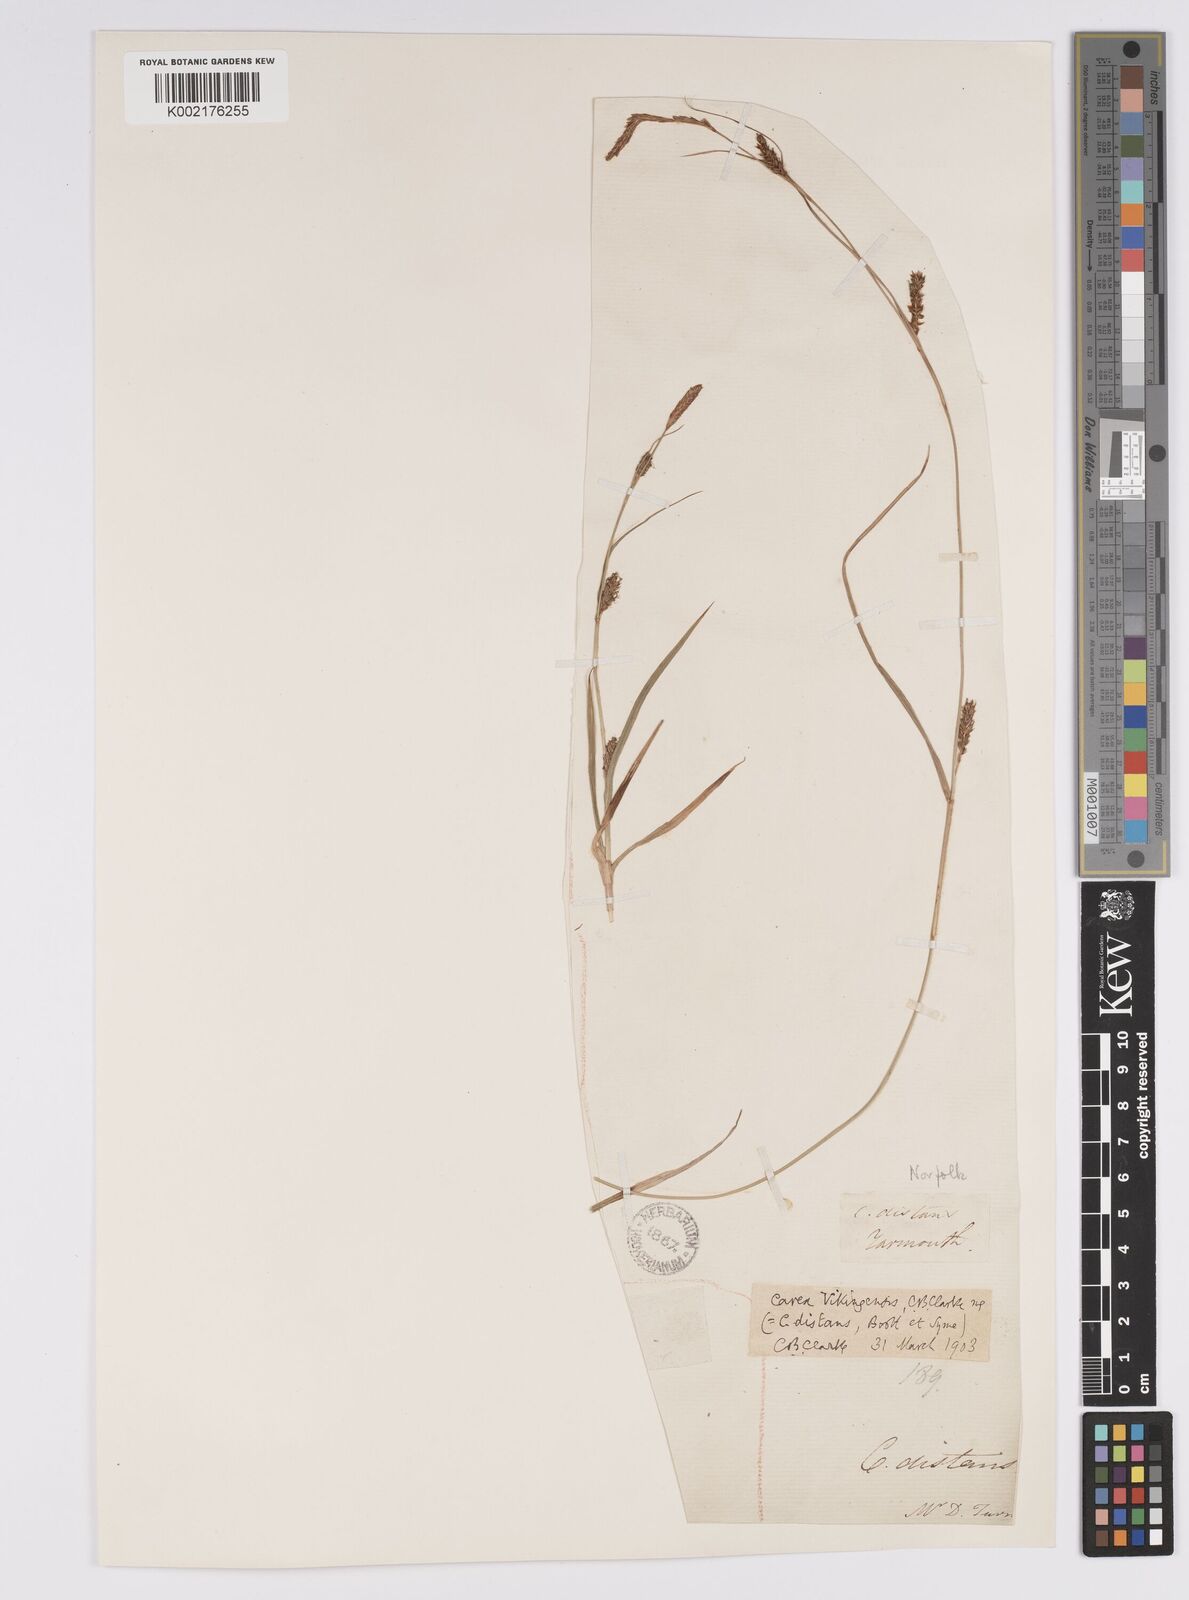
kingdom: Plantae
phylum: Tracheophyta
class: Liliopsida
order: Poales
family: Cyperaceae
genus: Carex
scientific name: Carex distans
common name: Distant sedge
